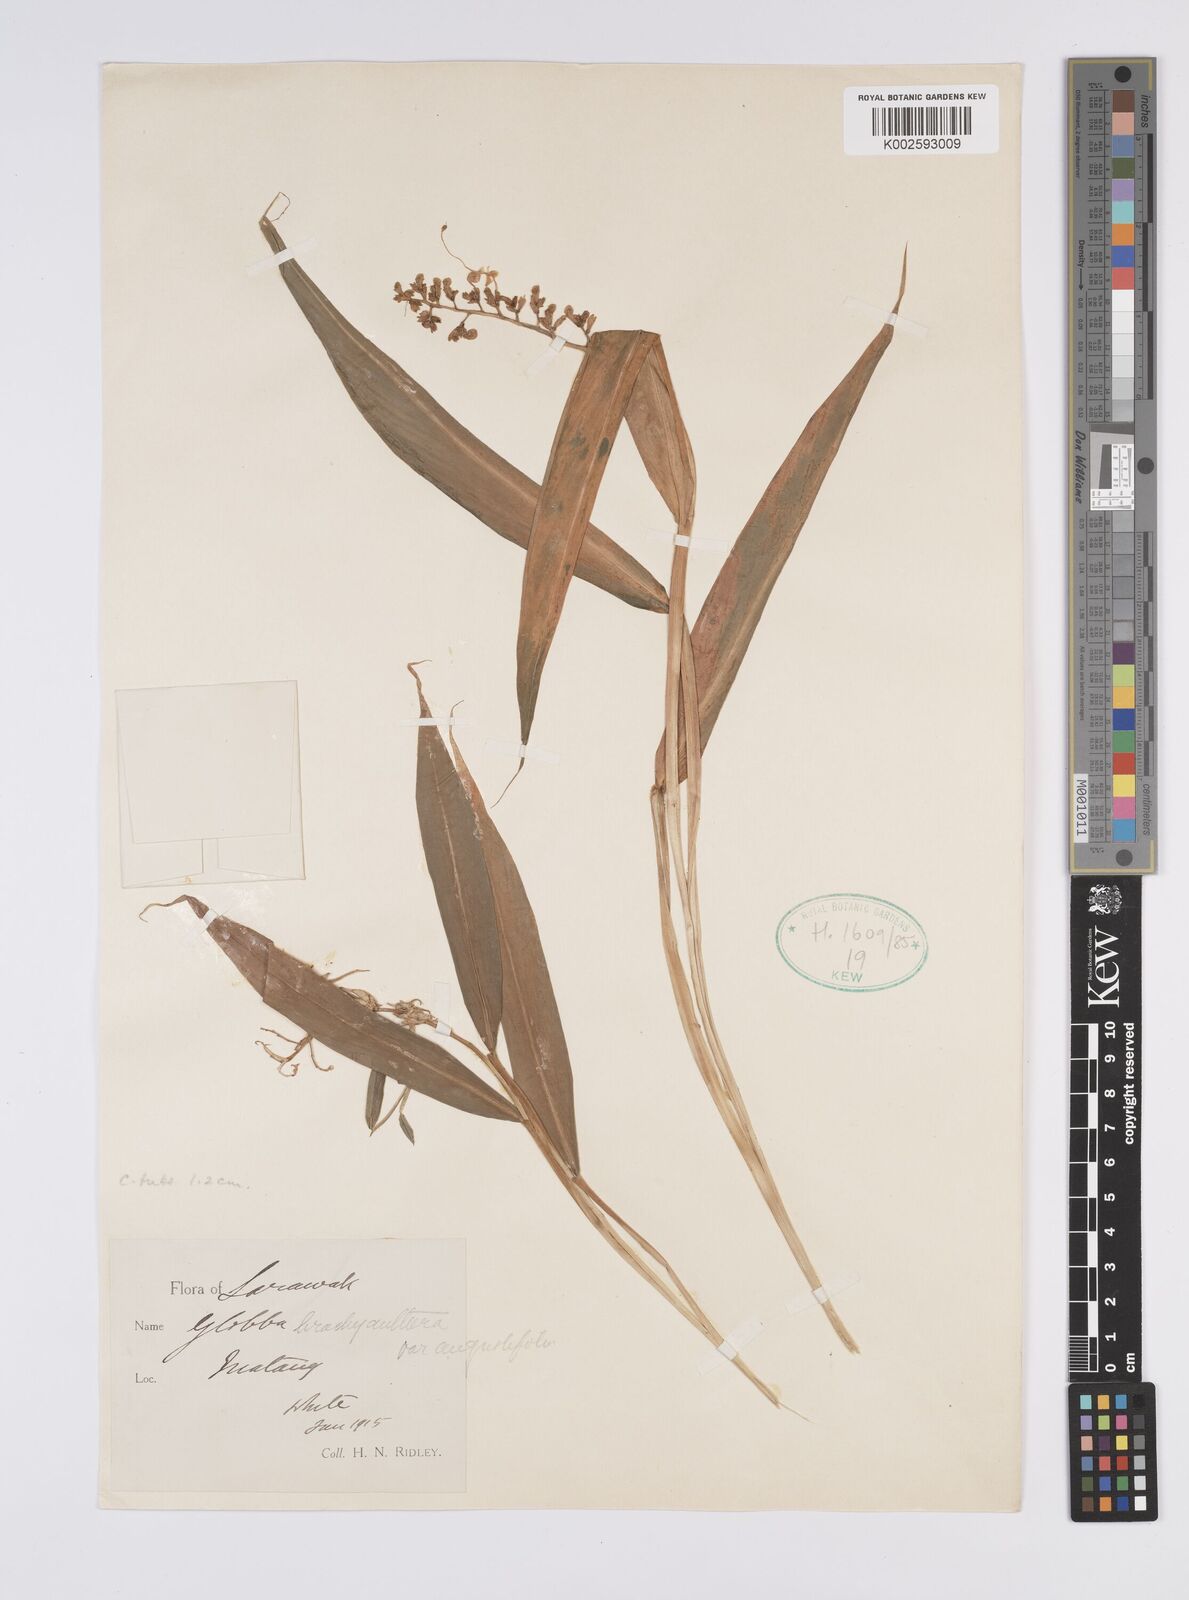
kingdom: Plantae
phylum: Tracheophyta
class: Liliopsida
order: Zingiberales
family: Zingiberaceae
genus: Globba
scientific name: Globba brachyanthera
